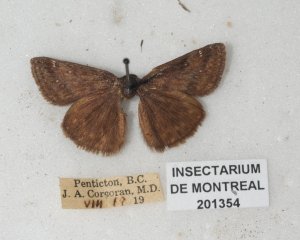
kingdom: Animalia
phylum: Arthropoda
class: Insecta
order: Lepidoptera
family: Hesperiidae
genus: Euphyes
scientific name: Euphyes vestris
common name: Dun Skipper
